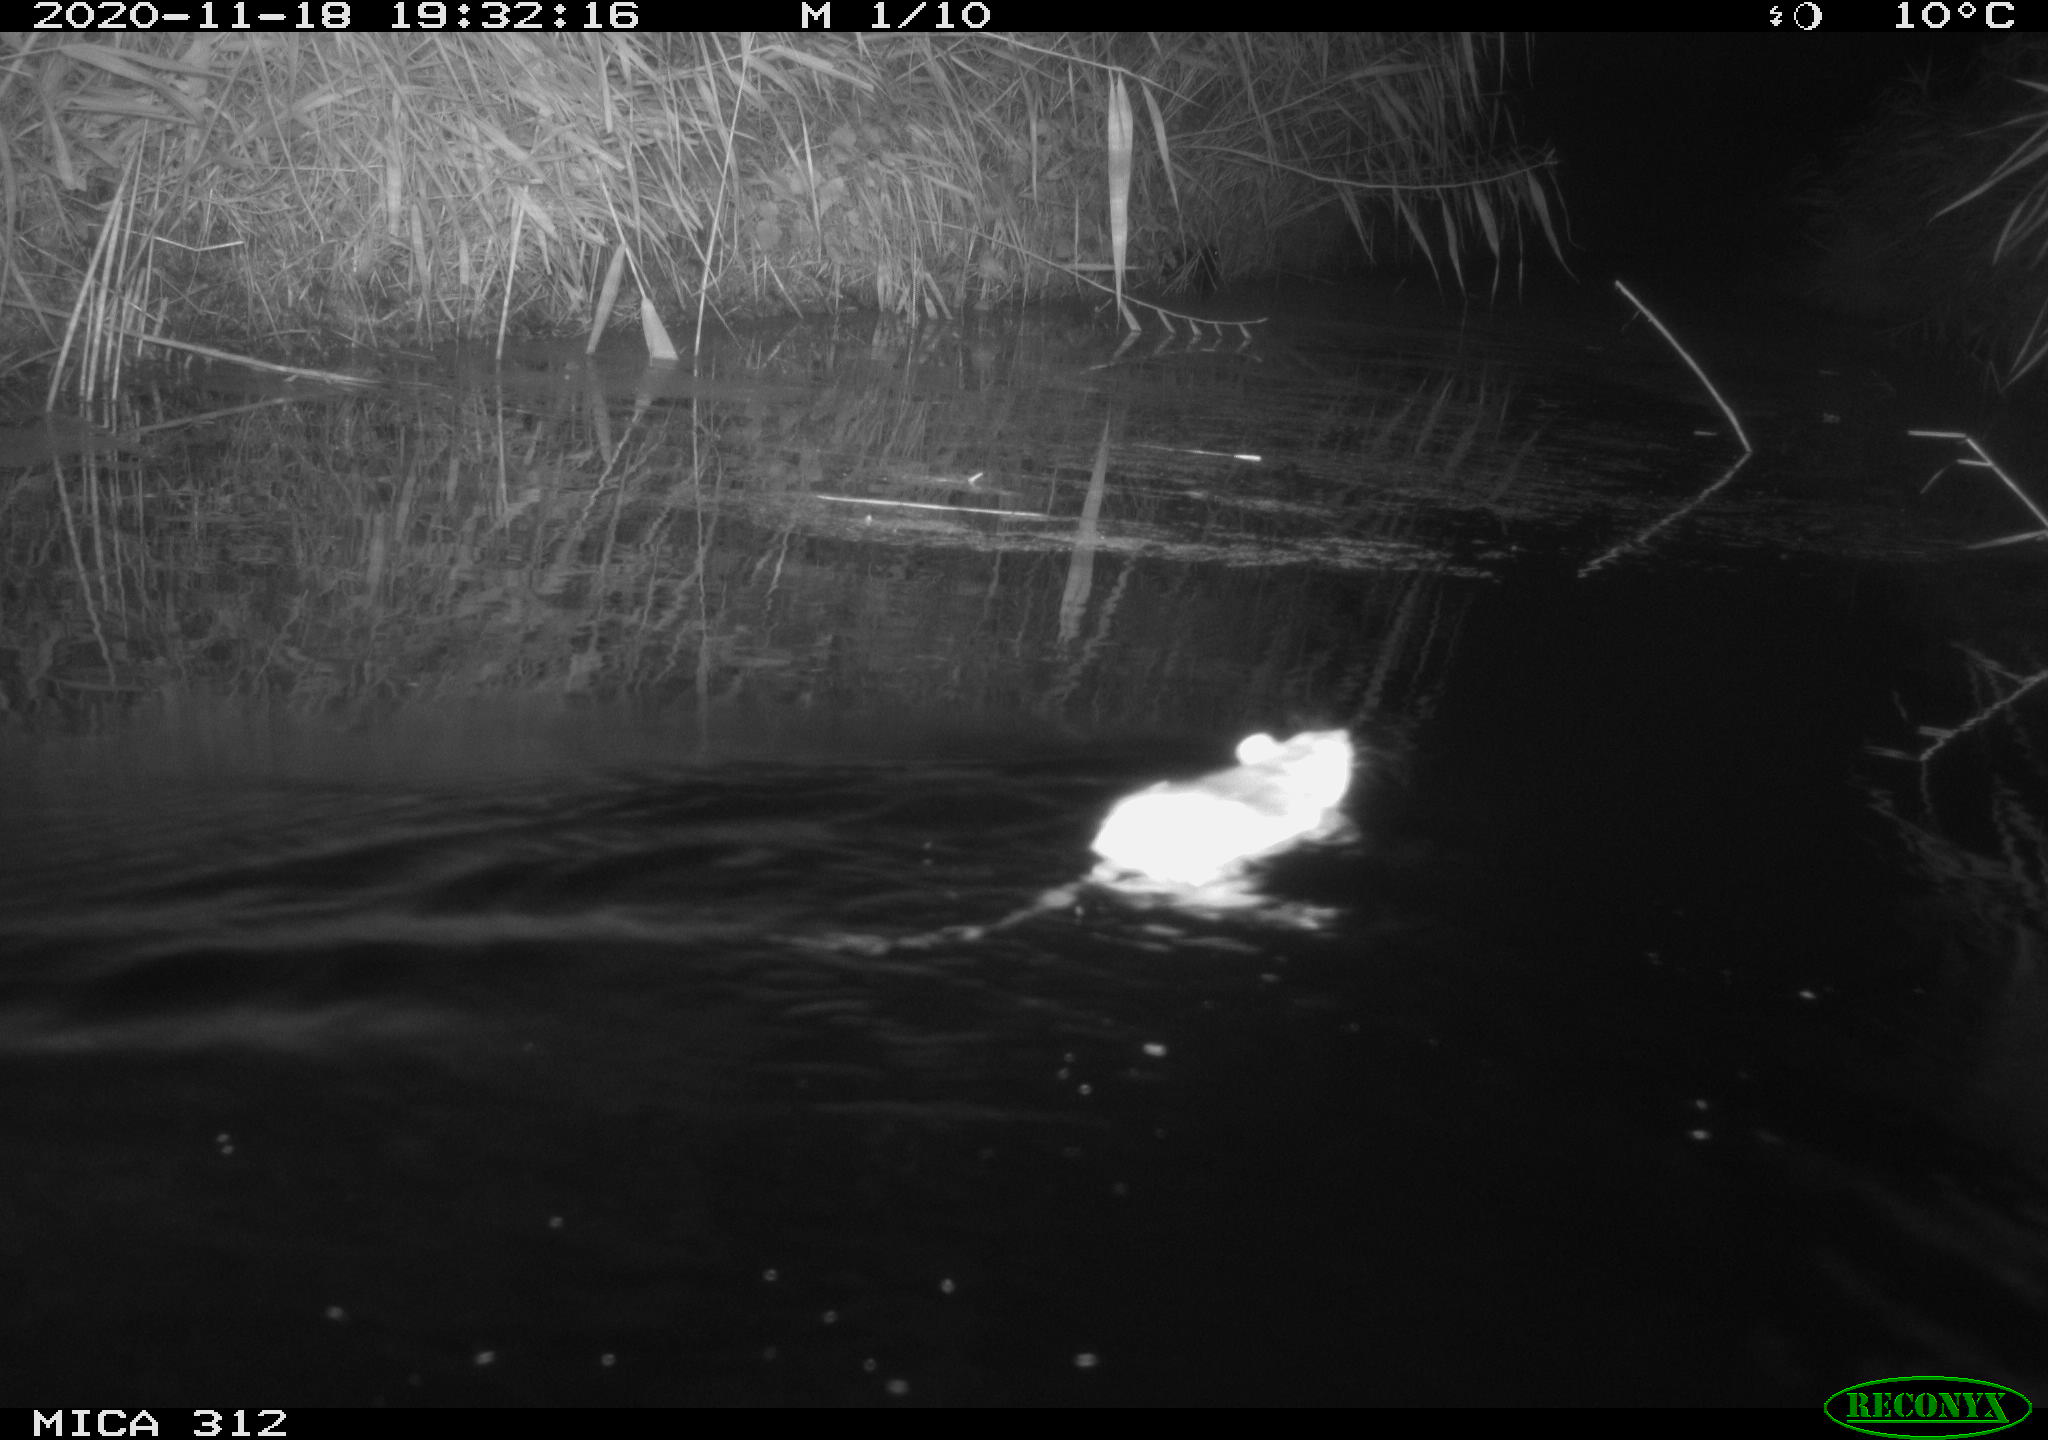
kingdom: Animalia
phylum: Chordata
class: Mammalia
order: Rodentia
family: Muridae
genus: Rattus
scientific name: Rattus norvegicus
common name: Brown rat
